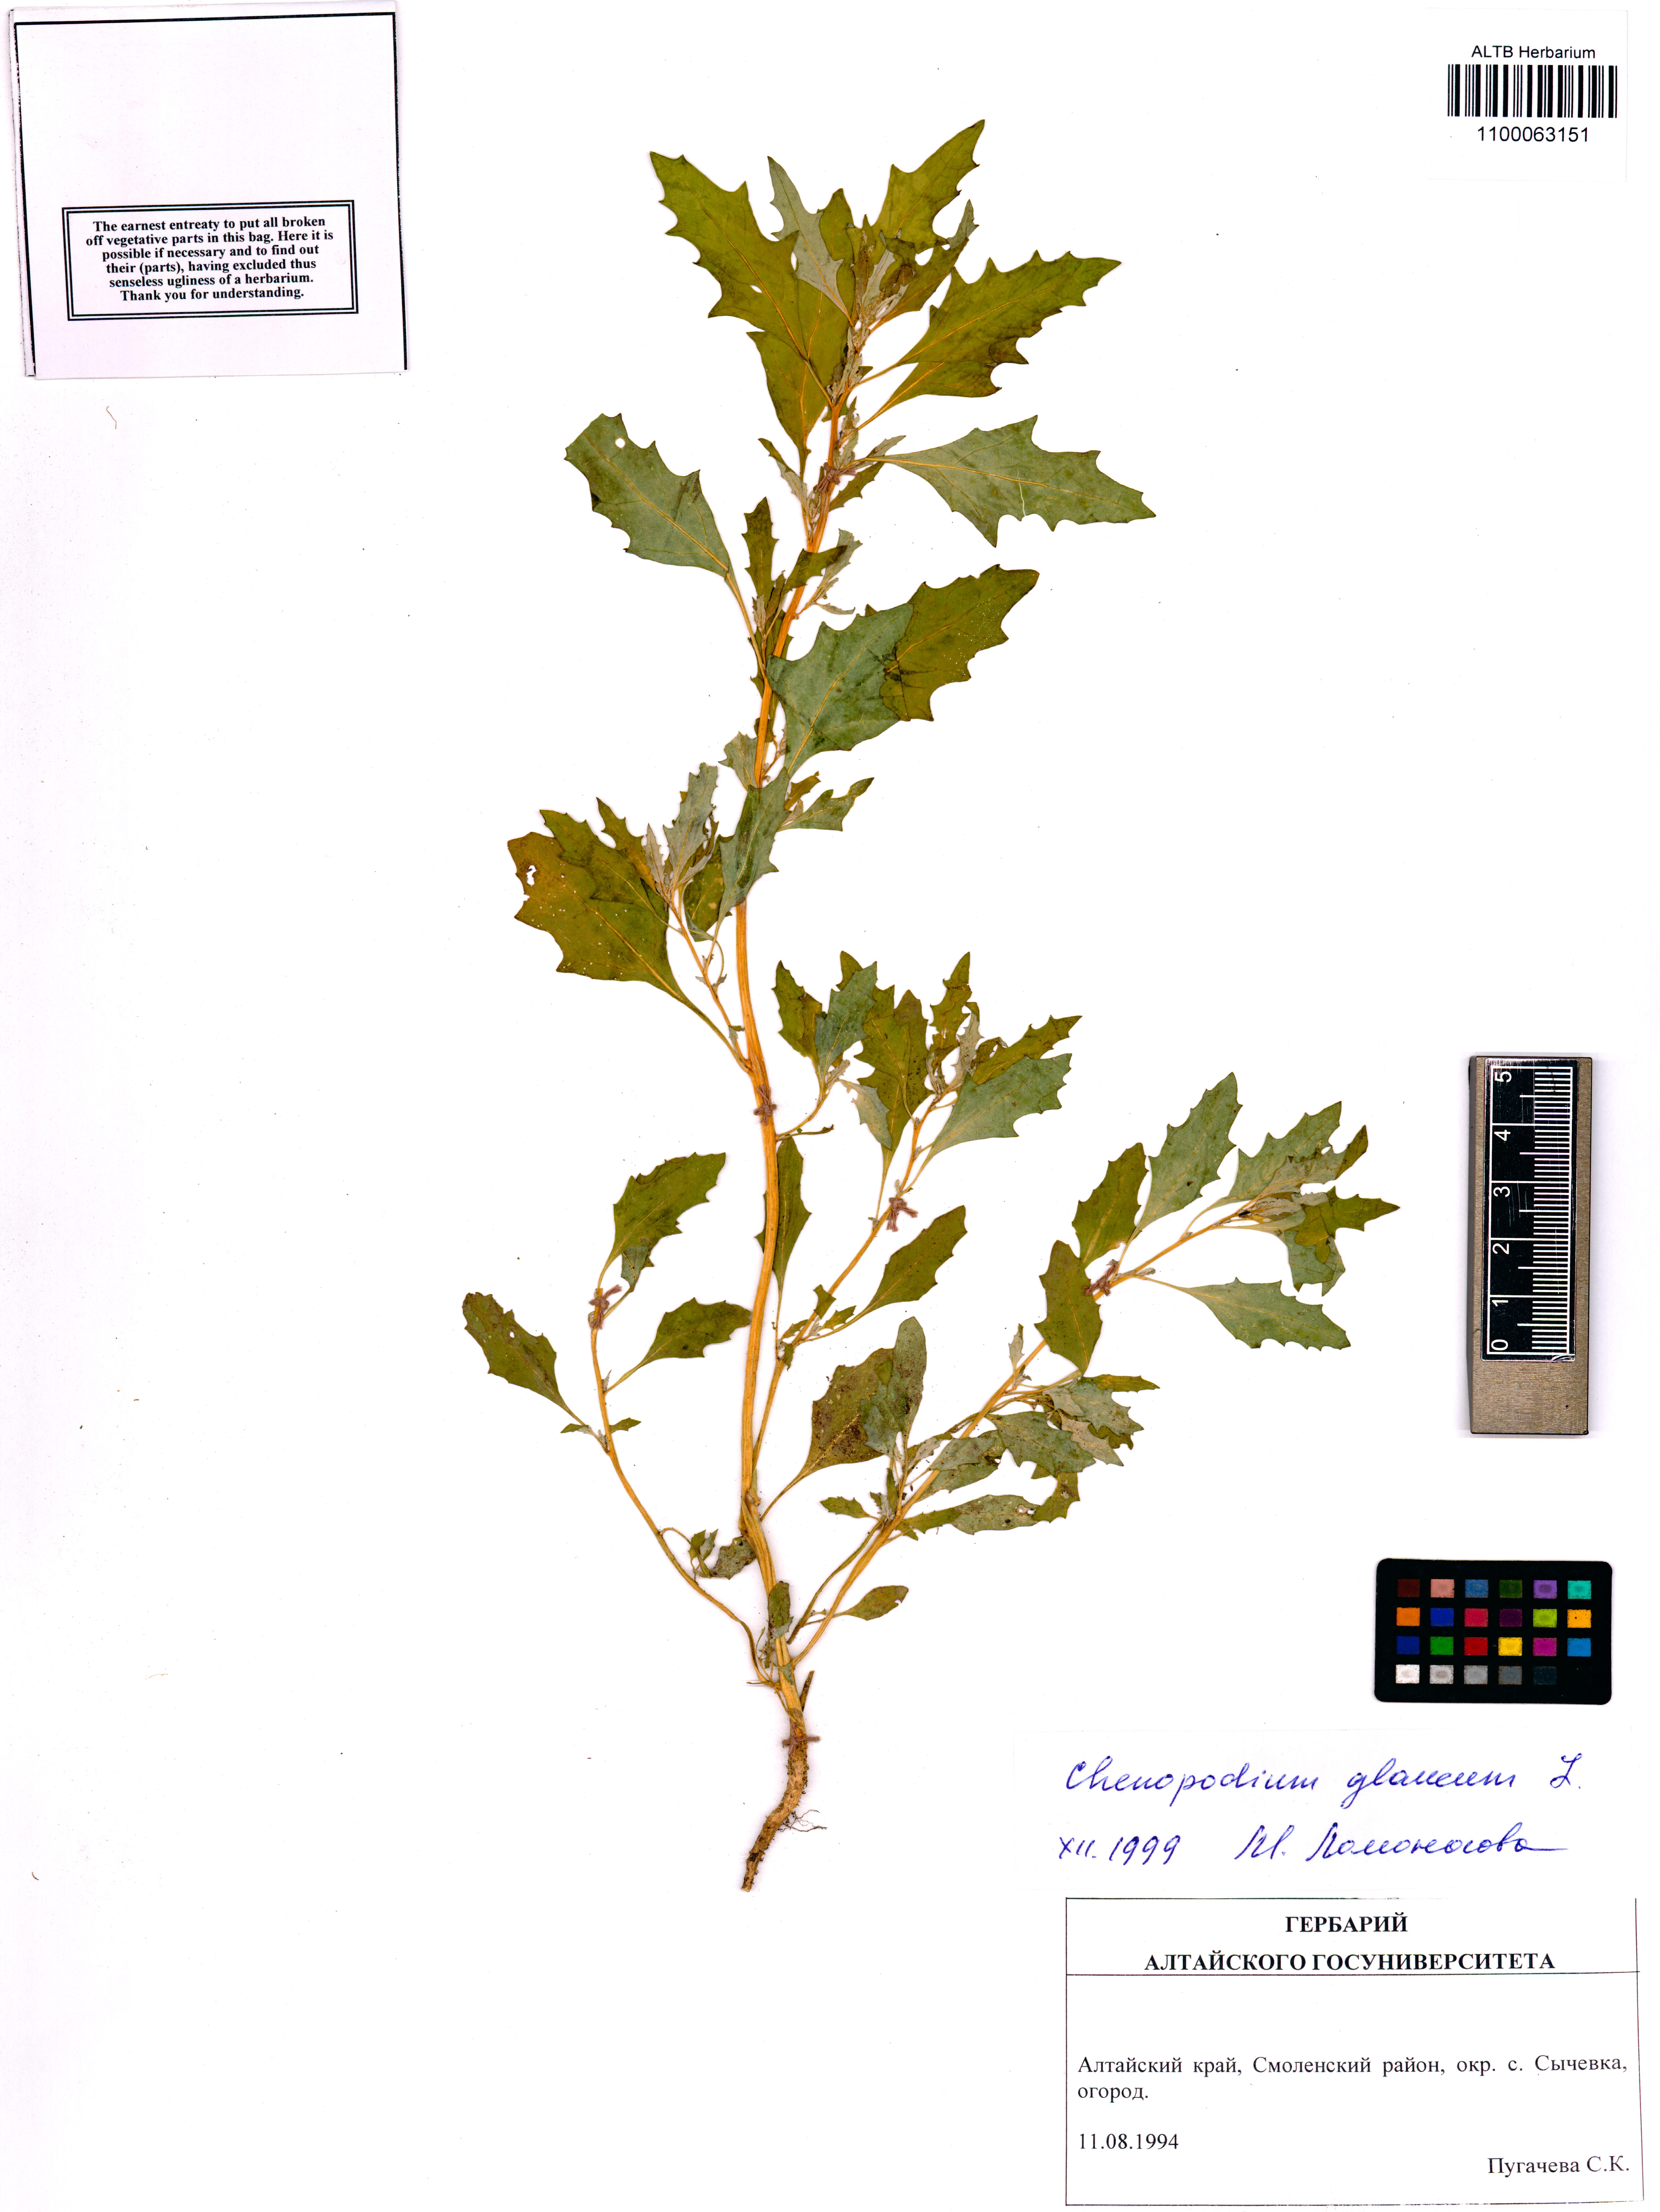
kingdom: Plantae
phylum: Tracheophyta
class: Magnoliopsida
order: Caryophyllales
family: Amaranthaceae
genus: Oxybasis
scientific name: Oxybasis glauca
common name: Glaucous goosefoot
